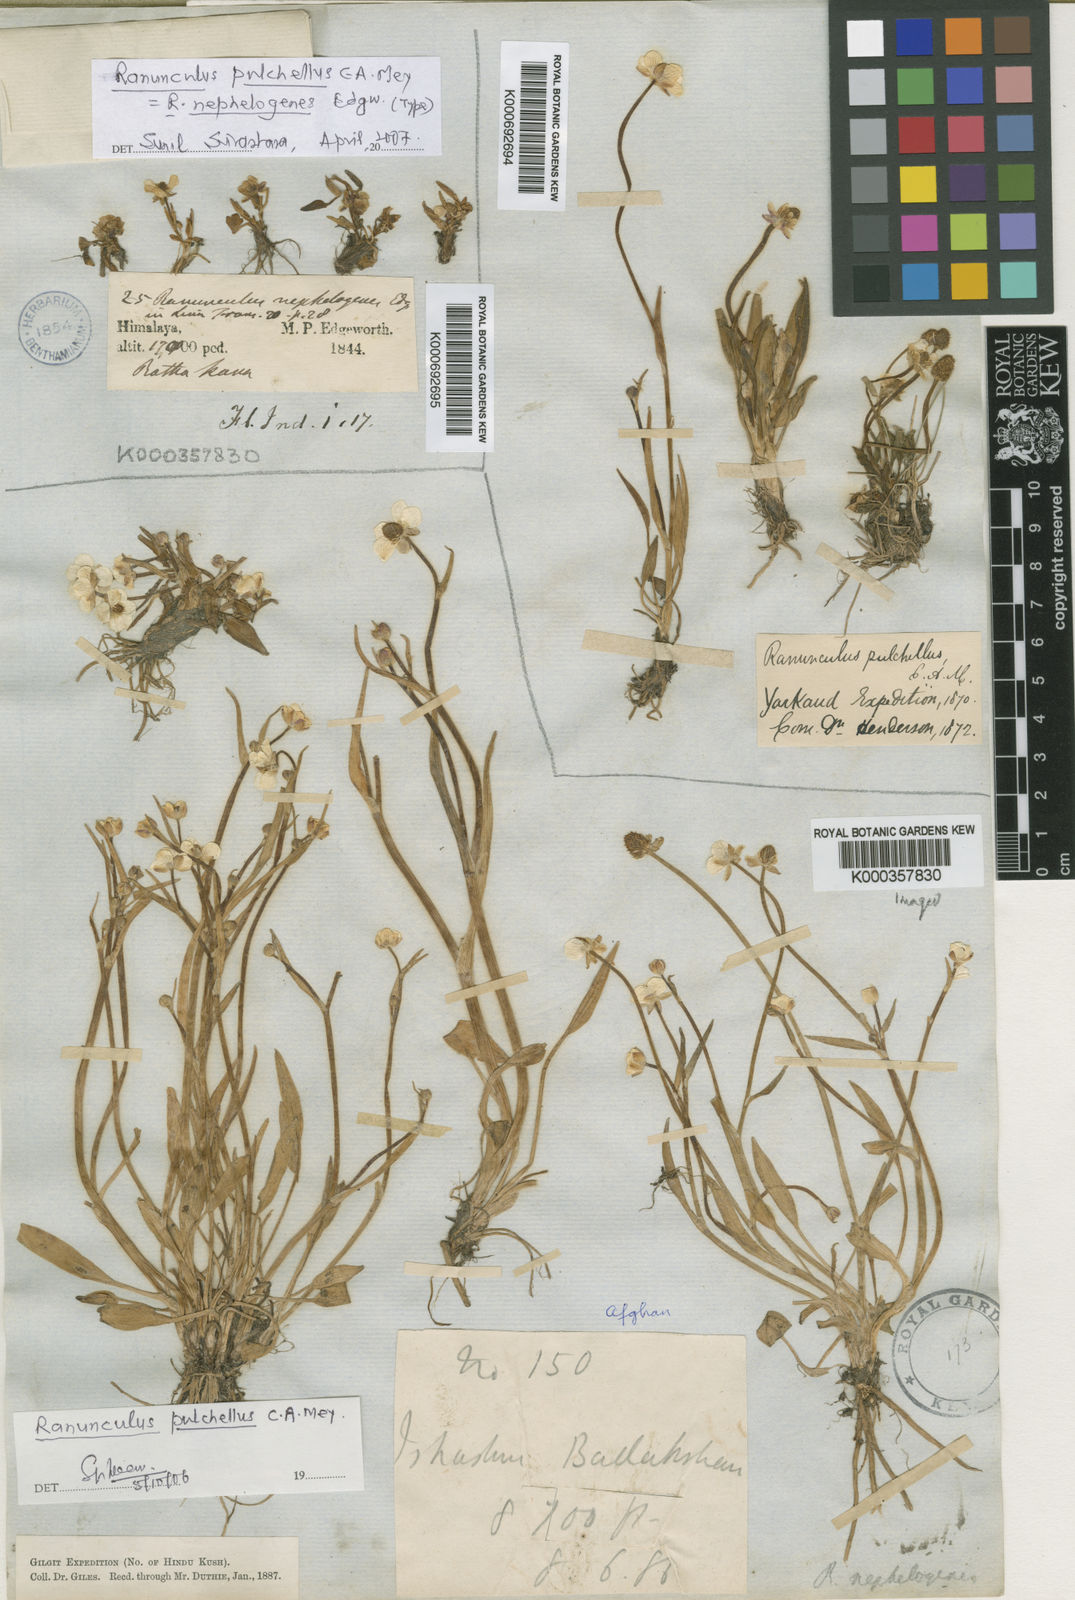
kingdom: Plantae
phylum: Tracheophyta
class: Magnoliopsida
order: Ranunculales
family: Ranunculaceae
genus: Ranunculus
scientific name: Ranunculus pulchellus
